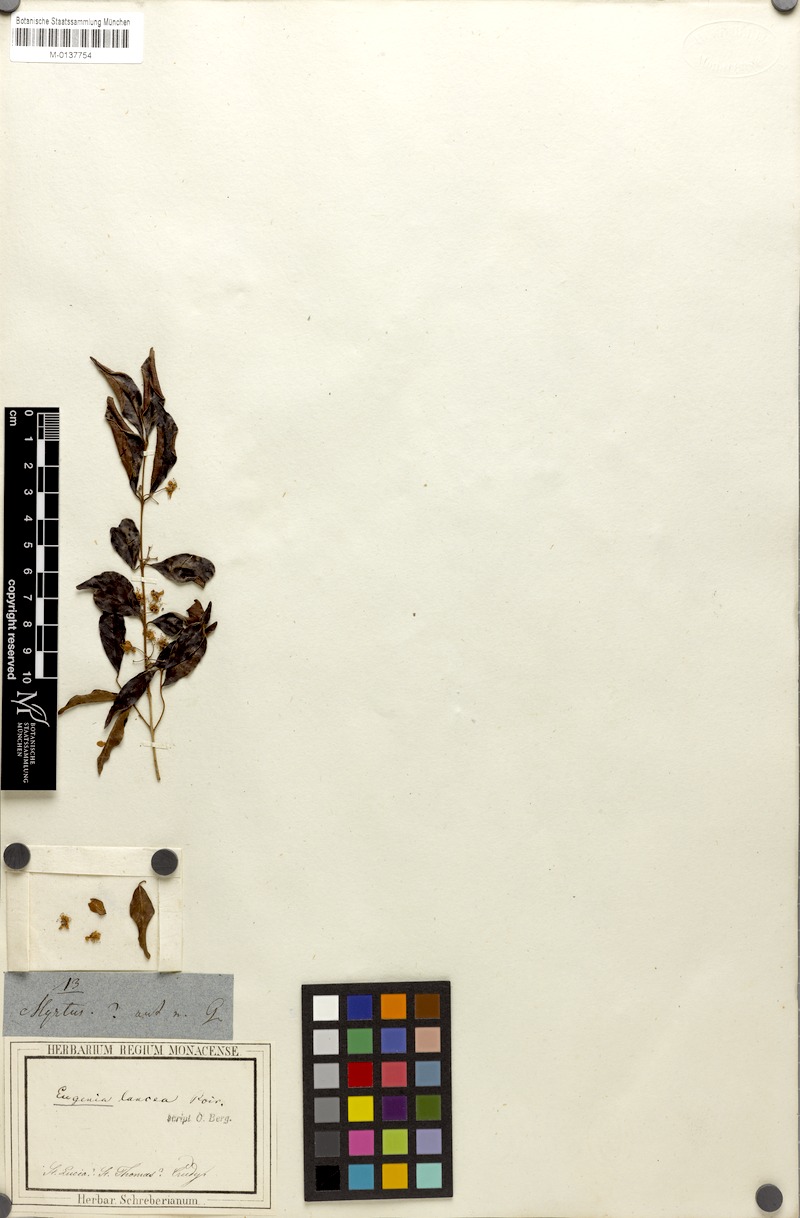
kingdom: Plantae
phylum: Tracheophyta
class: Magnoliopsida
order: Myrtales
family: Myrtaceae
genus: Eugenia
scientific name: Eugenia biflora
